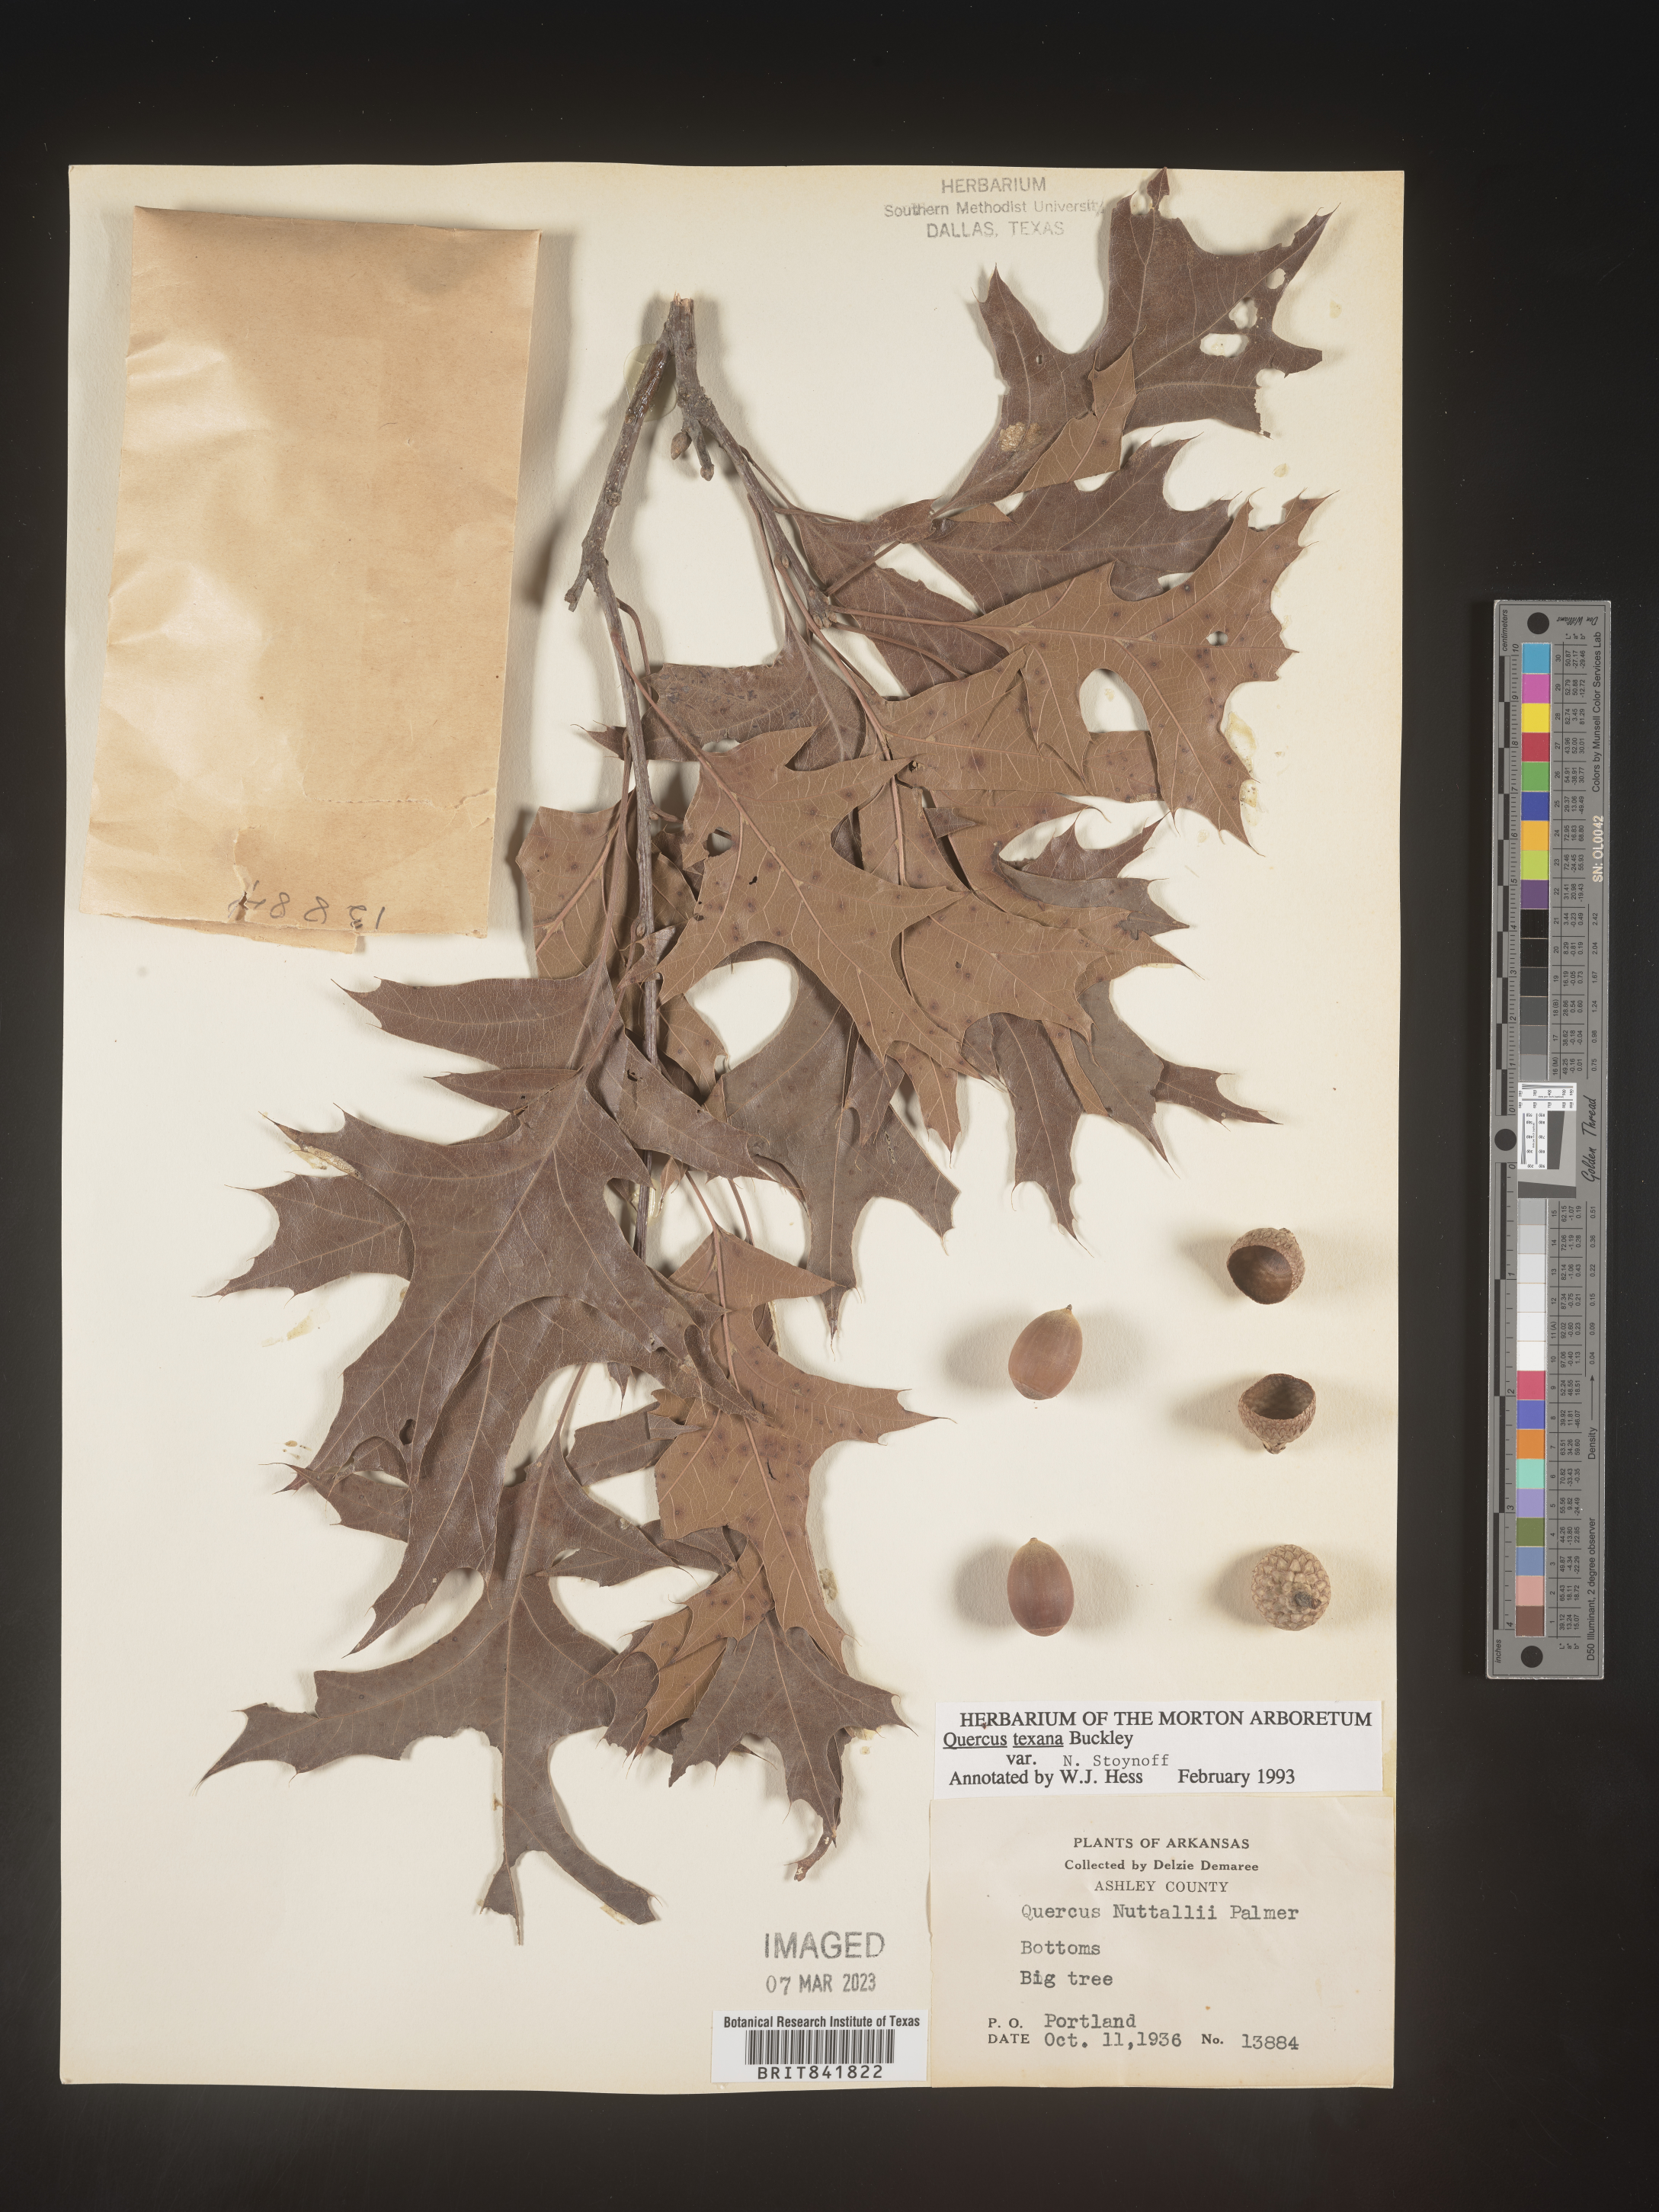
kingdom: Plantae
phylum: Tracheophyta
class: Magnoliopsida
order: Fagales
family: Fagaceae
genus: Quercus
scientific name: Quercus texana
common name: Nuttall oak
